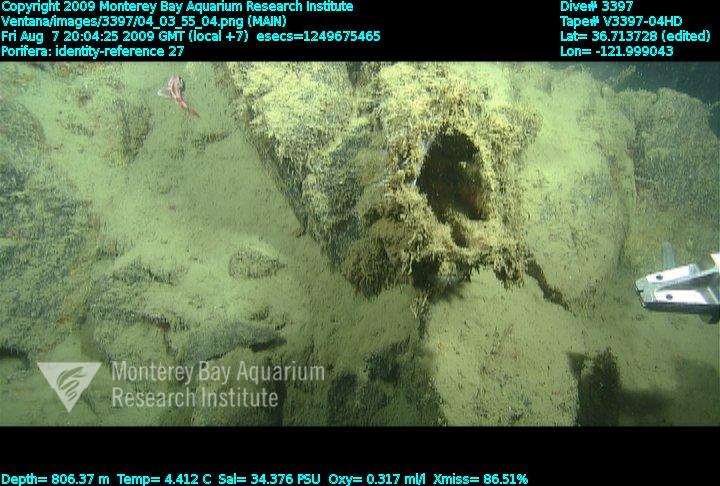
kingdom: Animalia
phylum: Porifera
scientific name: Porifera
